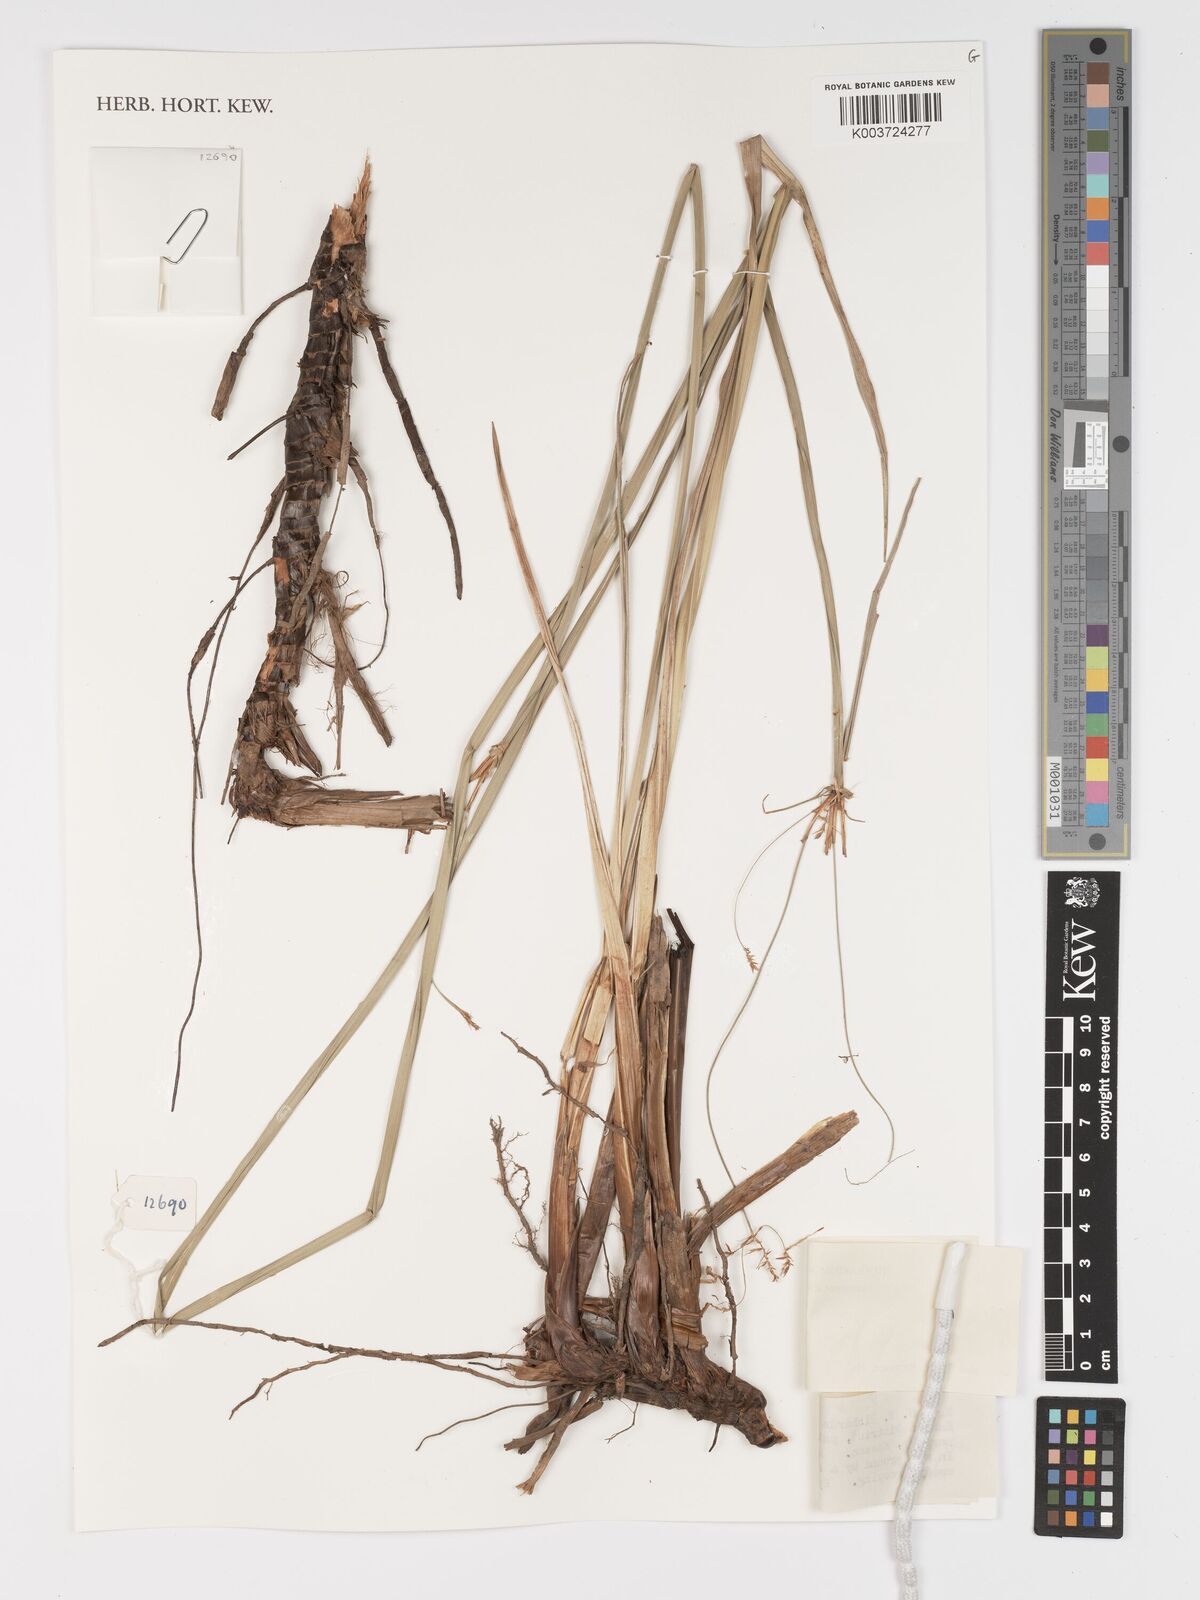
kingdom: Plantae
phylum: Tracheophyta
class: Liliopsida
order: Poales
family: Cyperaceae
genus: Cyperus
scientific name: Cyperus
